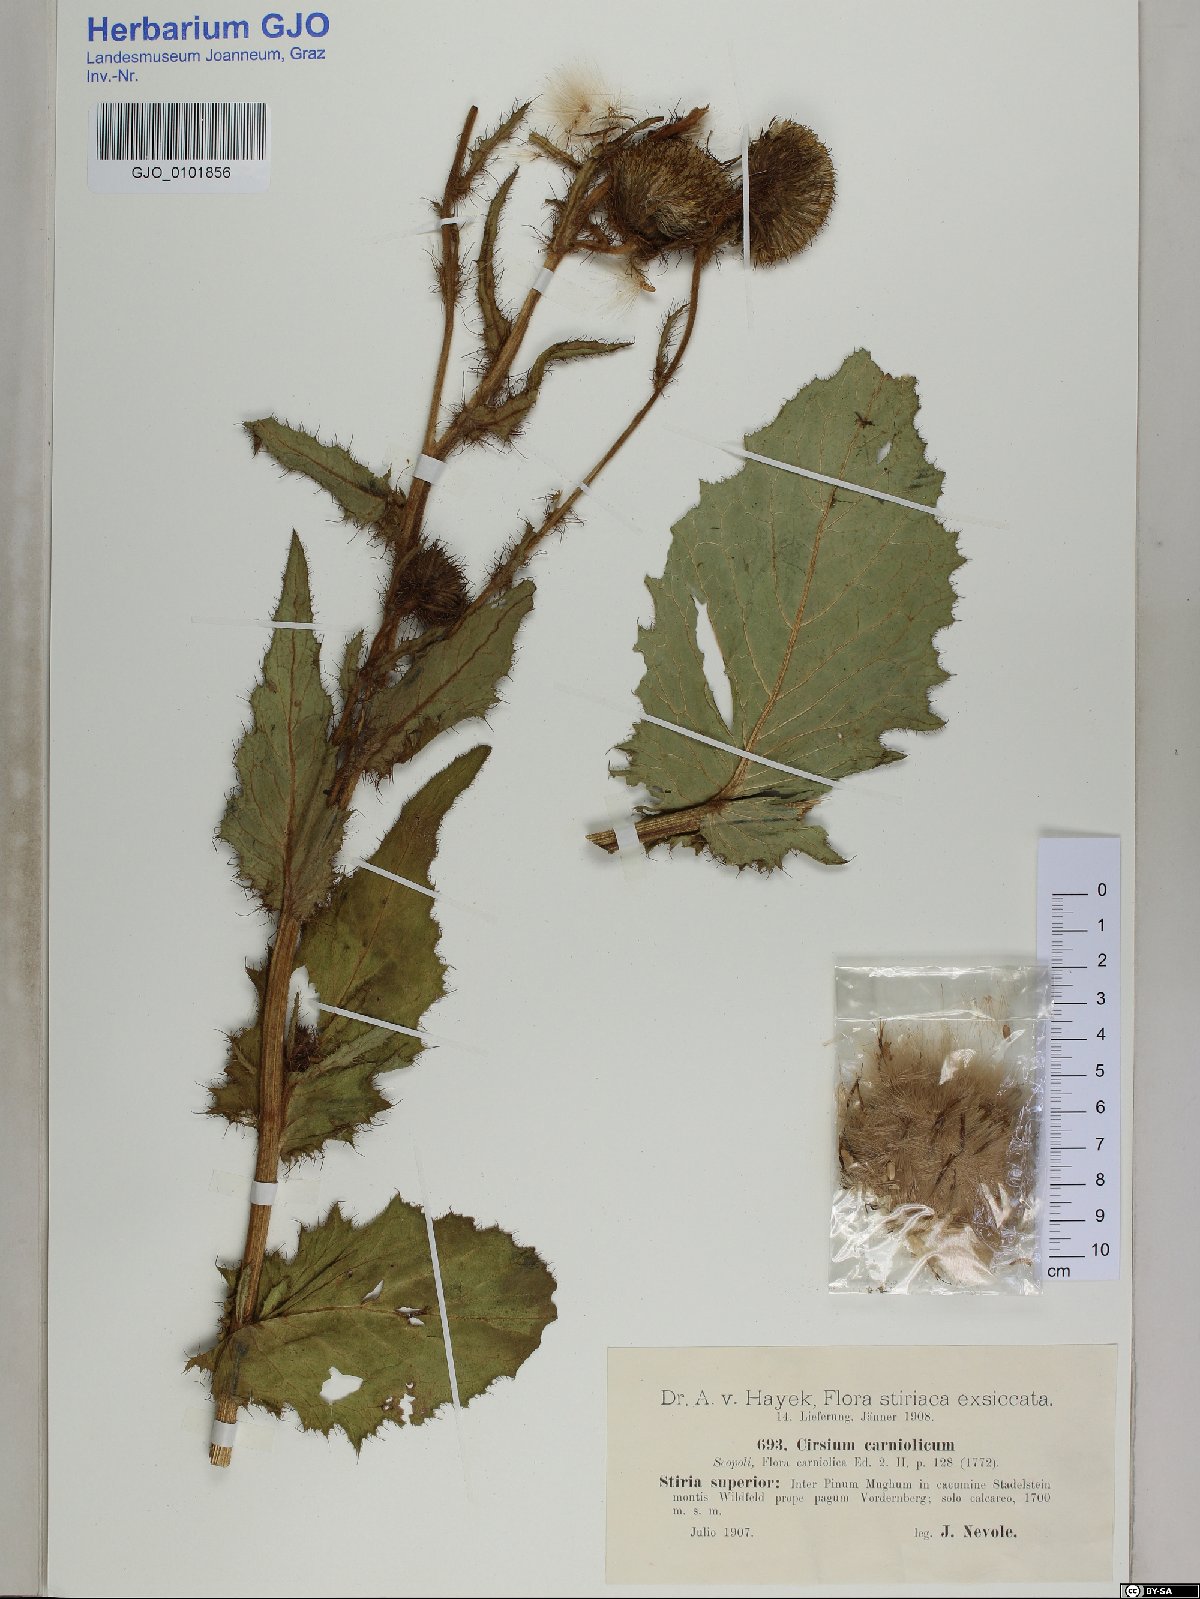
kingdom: Plantae
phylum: Tracheophyta
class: Magnoliopsida
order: Asterales
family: Asteraceae
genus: Cirsium
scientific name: Cirsium carniolicum
